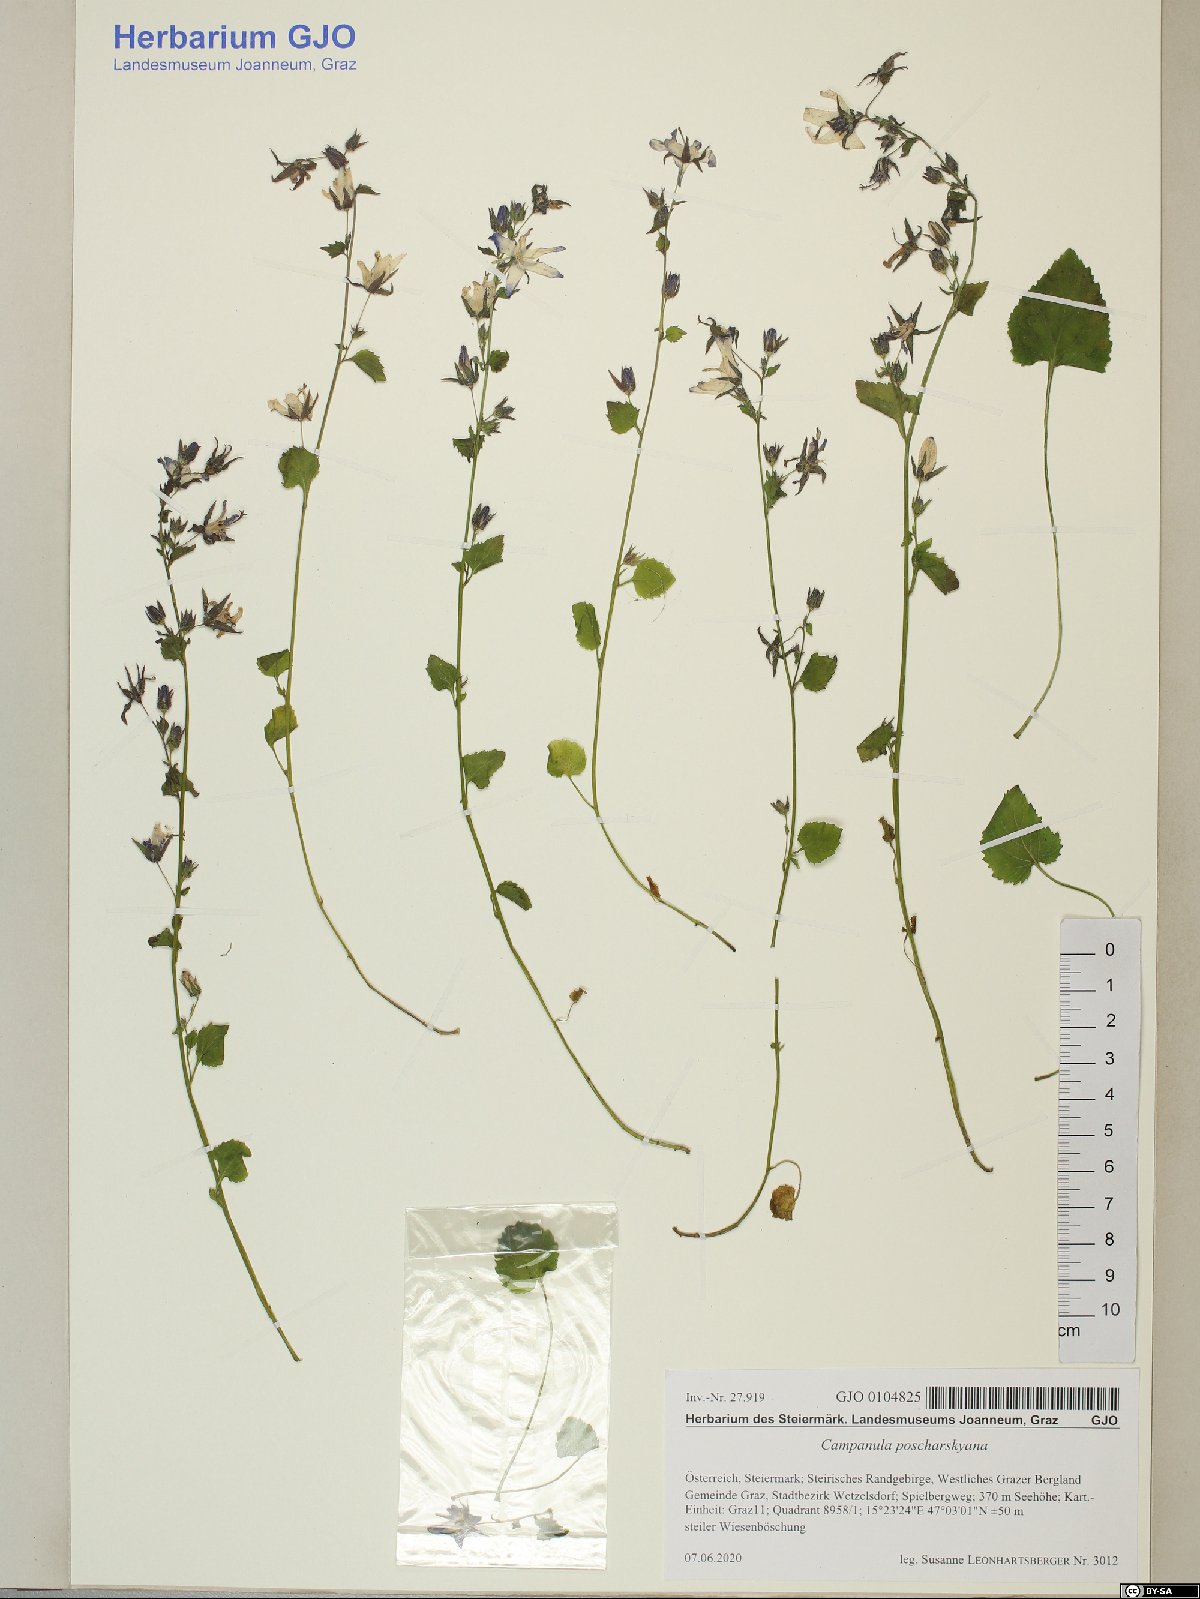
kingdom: Plantae
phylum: Tracheophyta
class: Magnoliopsida
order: Asterales
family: Campanulaceae
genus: Campanula
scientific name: Campanula poscharskyana
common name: Trailing bellflower
